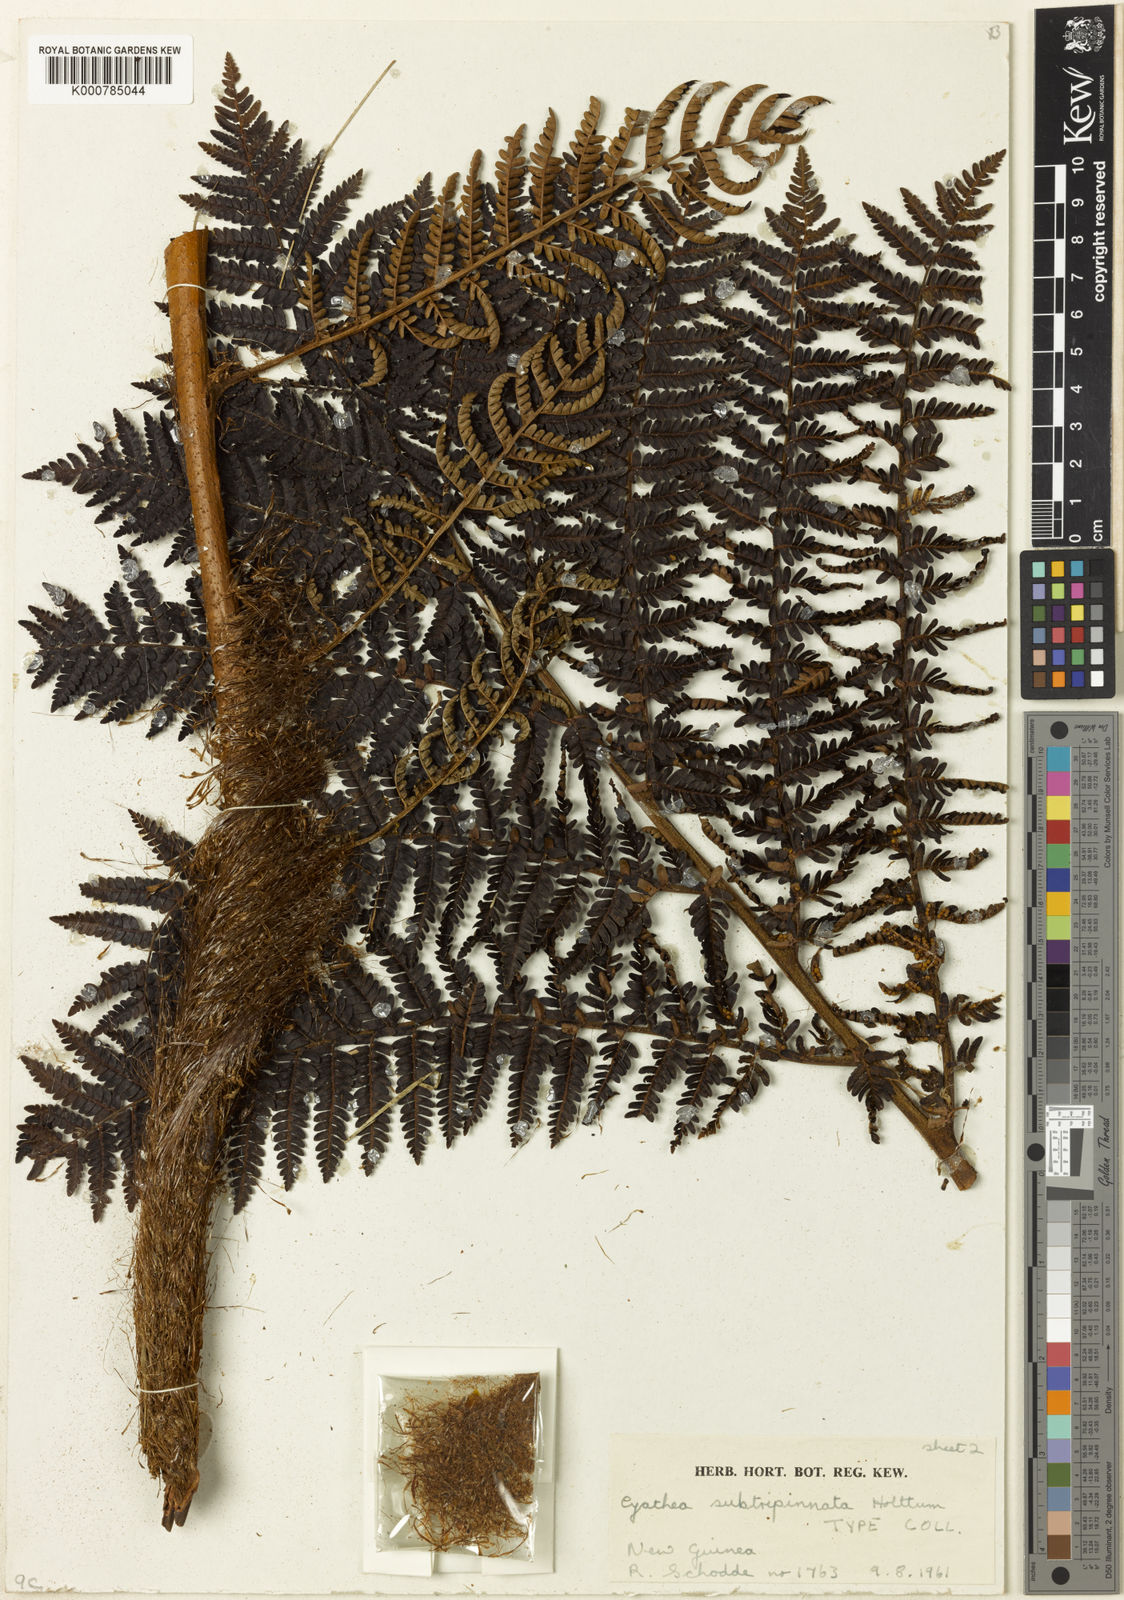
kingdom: Plantae
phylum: Tracheophyta
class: Polypodiopsida
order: Cyatheales
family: Cyatheaceae
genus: Alsophila
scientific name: Alsophila subtripinnata
